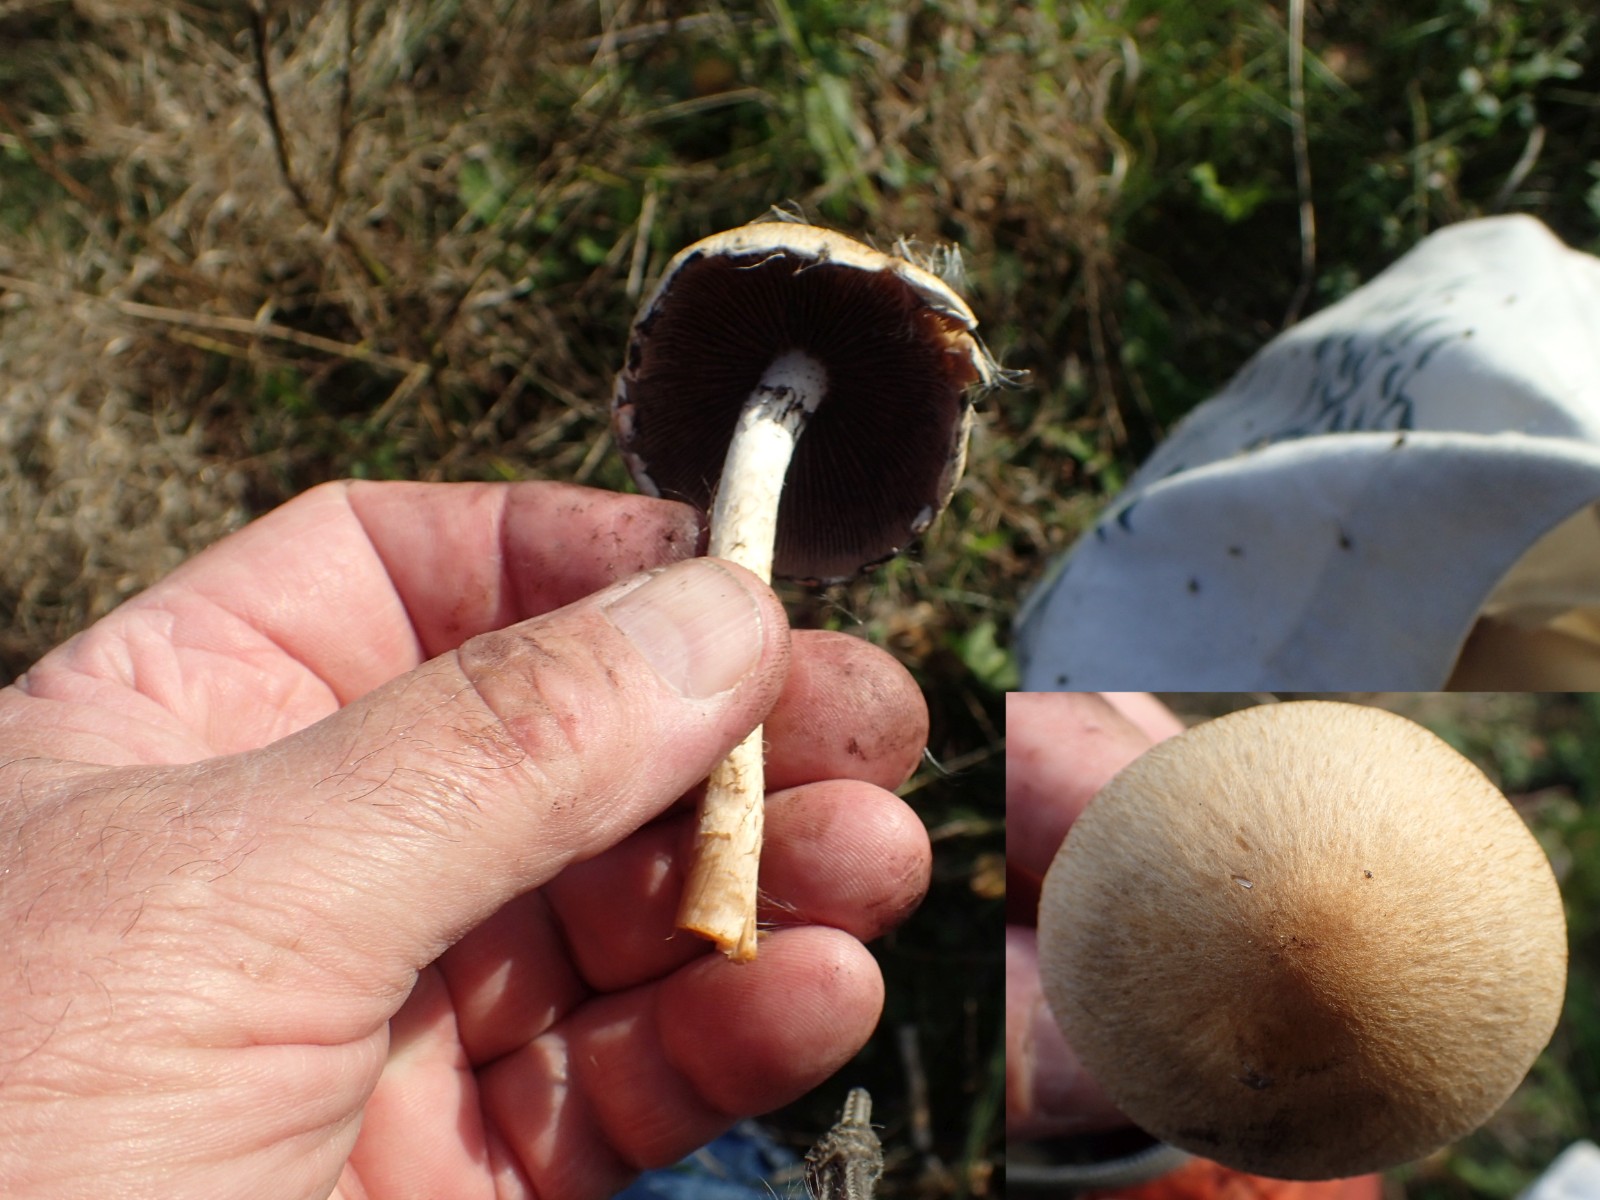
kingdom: Fungi
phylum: Basidiomycota
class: Agaricomycetes
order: Agaricales
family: Psathyrellaceae
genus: Lacrymaria
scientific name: Lacrymaria lacrymabunda
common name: grædende mørkhat
